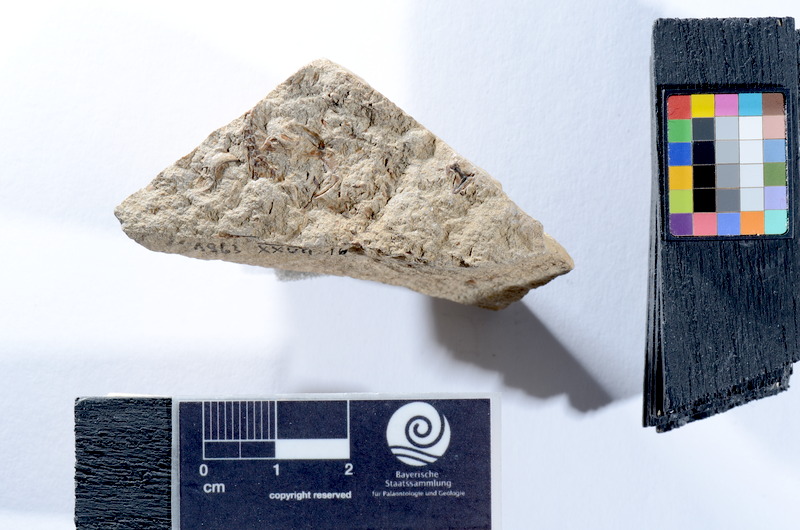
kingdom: Animalia
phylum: Chordata
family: Leptolepididae
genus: Leptolepis
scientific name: Leptolepis coryphaenoides
